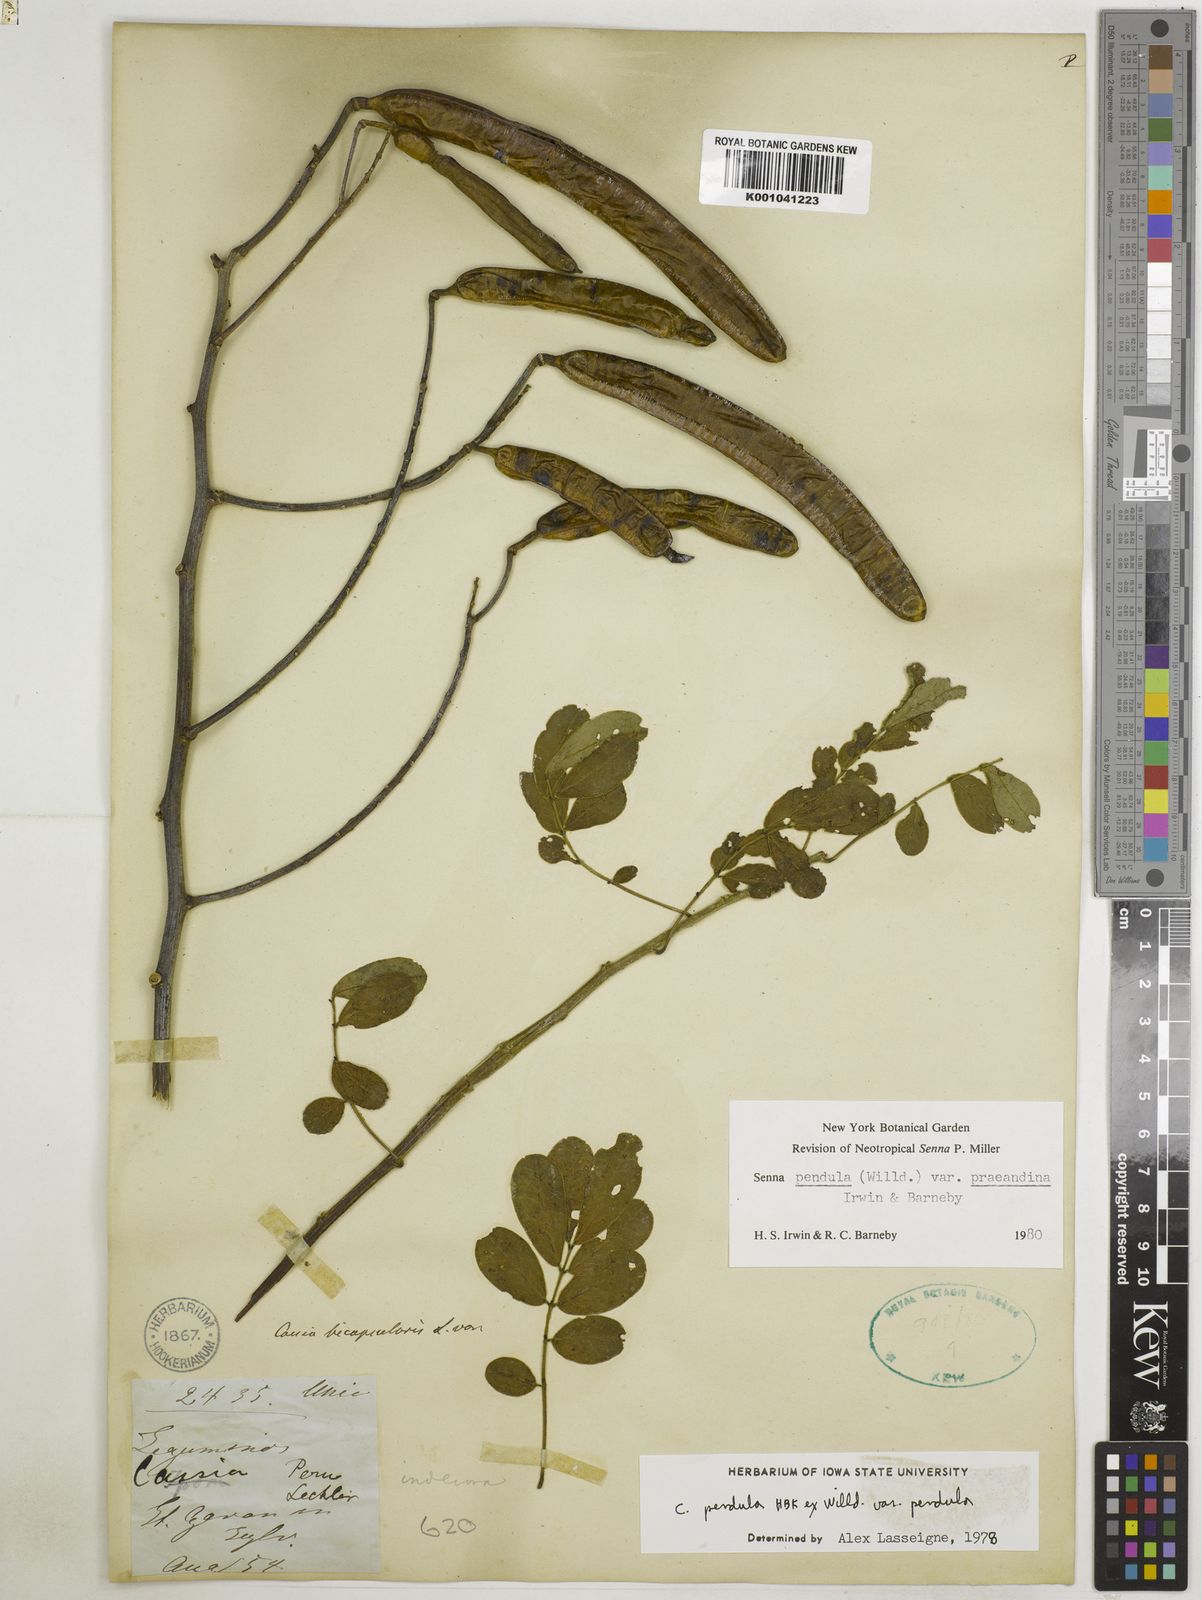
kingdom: Plantae
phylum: Tracheophyta
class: Magnoliopsida
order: Fabales
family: Fabaceae
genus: Senna
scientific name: Senna pendula
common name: Easter cassia
